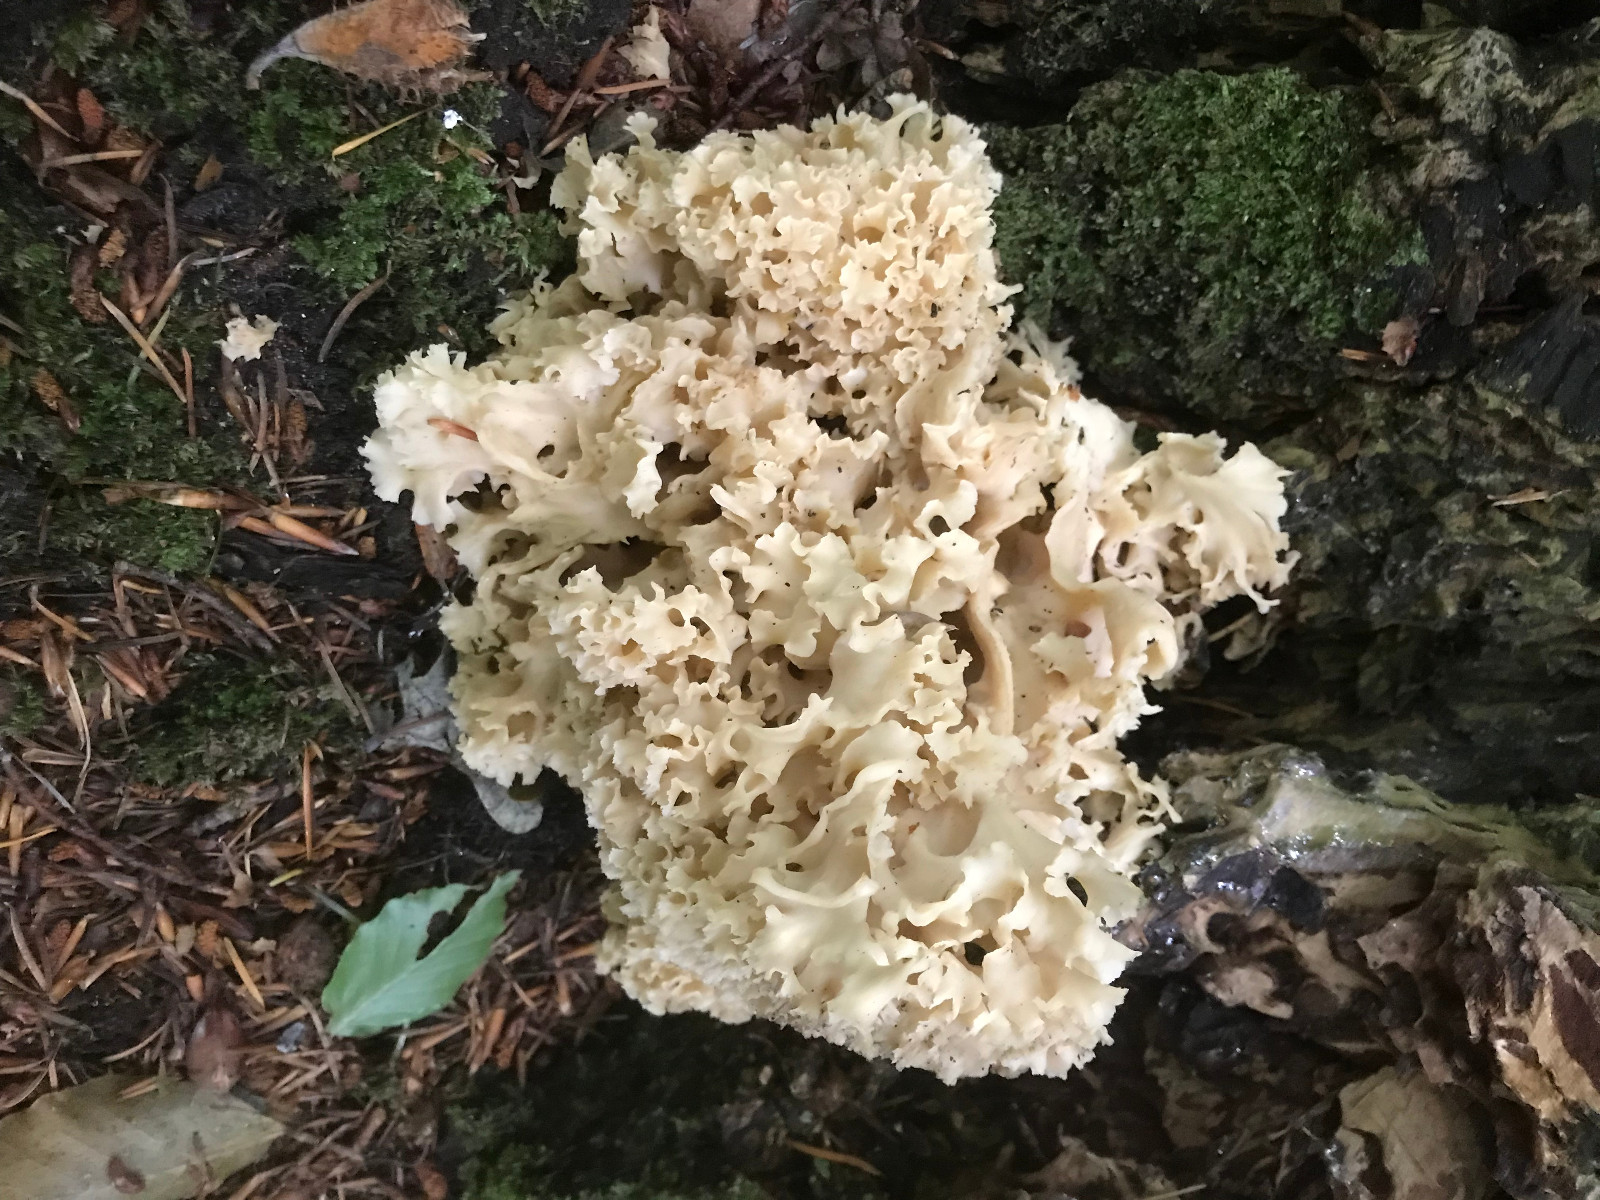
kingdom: Fungi
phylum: Basidiomycota
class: Agaricomycetes
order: Polyporales
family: Sparassidaceae
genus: Sparassis
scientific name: Sparassis crispa
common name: kruset blomkålssvamp
